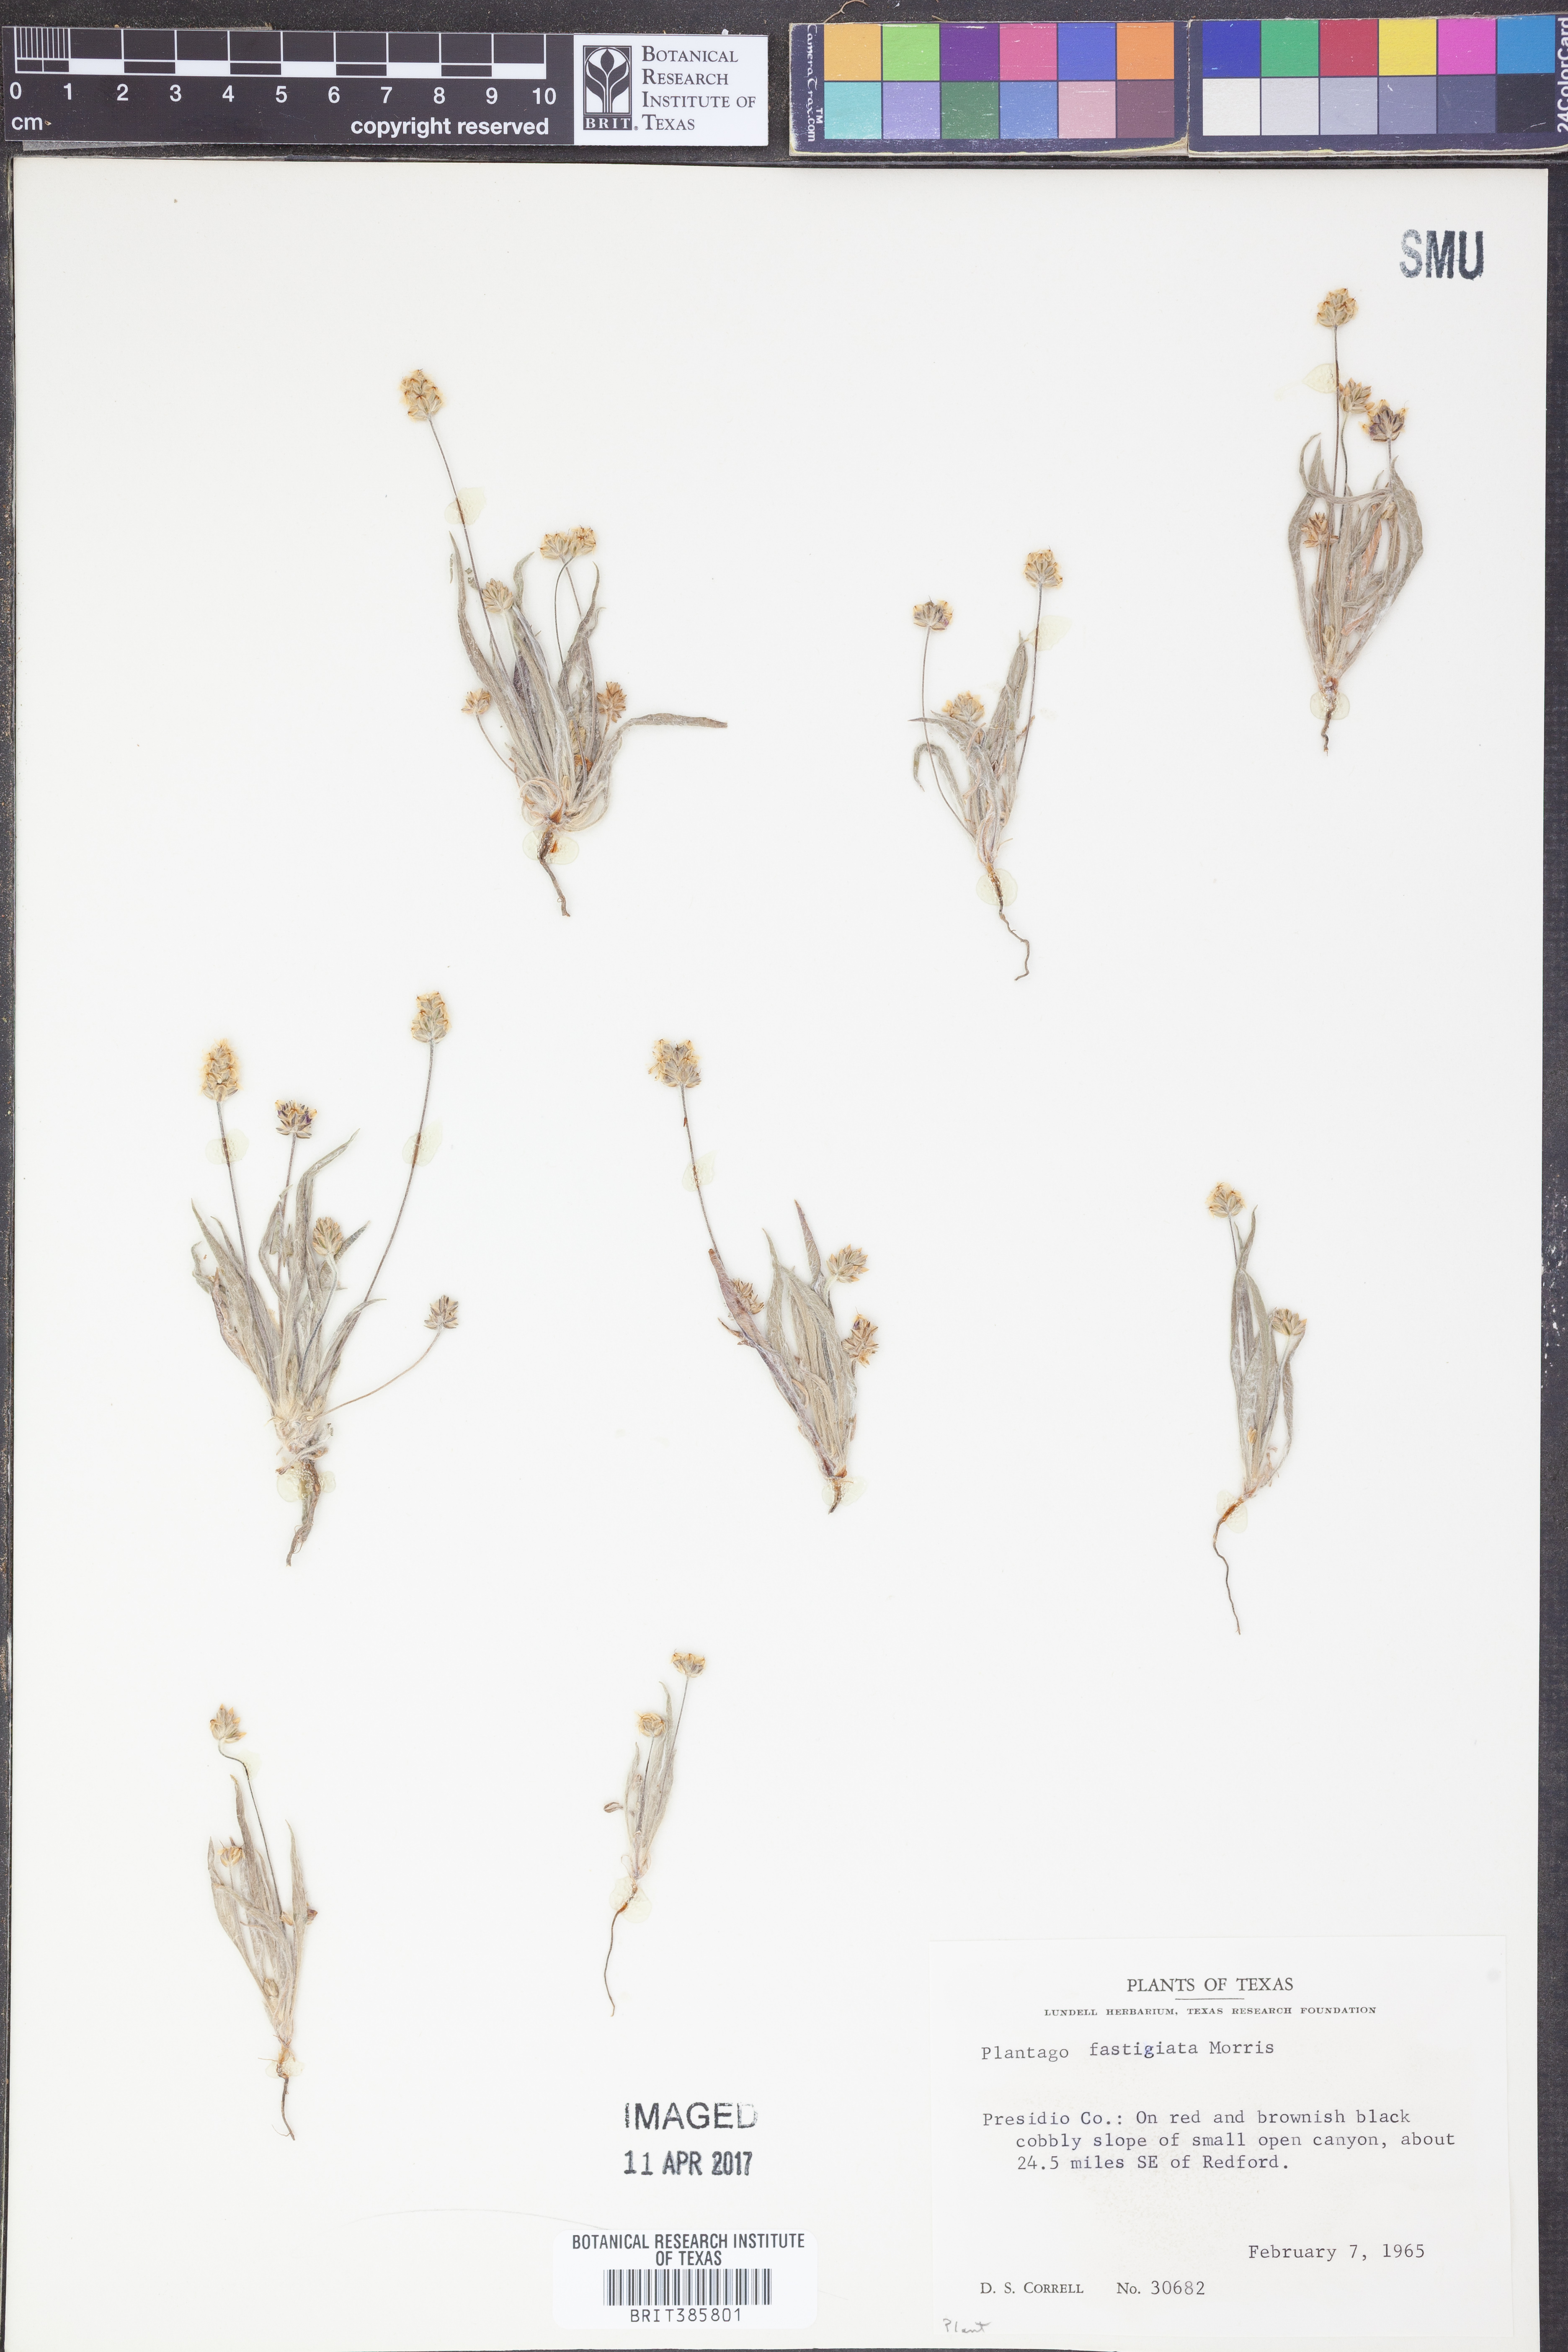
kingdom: Plantae
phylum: Tracheophyta
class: Magnoliopsida
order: Lamiales
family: Plantaginaceae
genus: Plantago
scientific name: Plantago ovata
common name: Blond plantain
